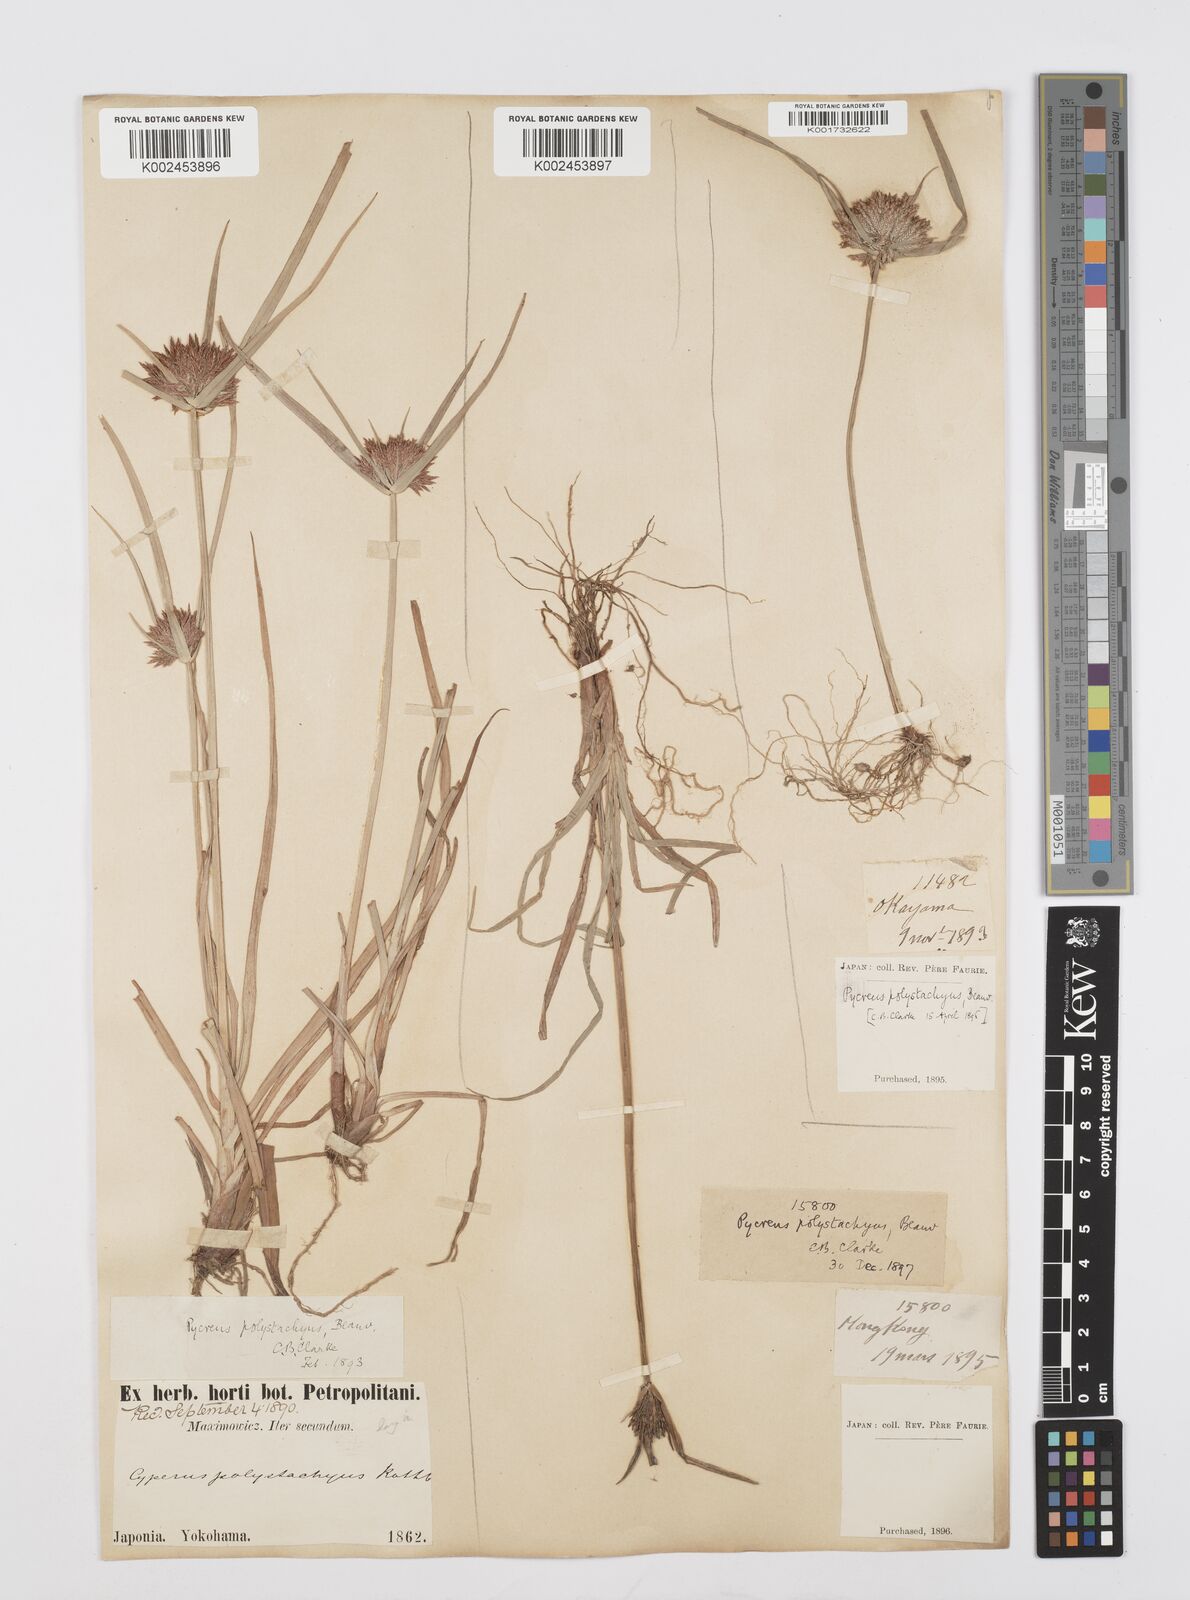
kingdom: Plantae
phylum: Tracheophyta
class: Liliopsida
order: Poales
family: Cyperaceae
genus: Cyperus
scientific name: Cyperus polystachyos
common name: Bunchy flat sedge
